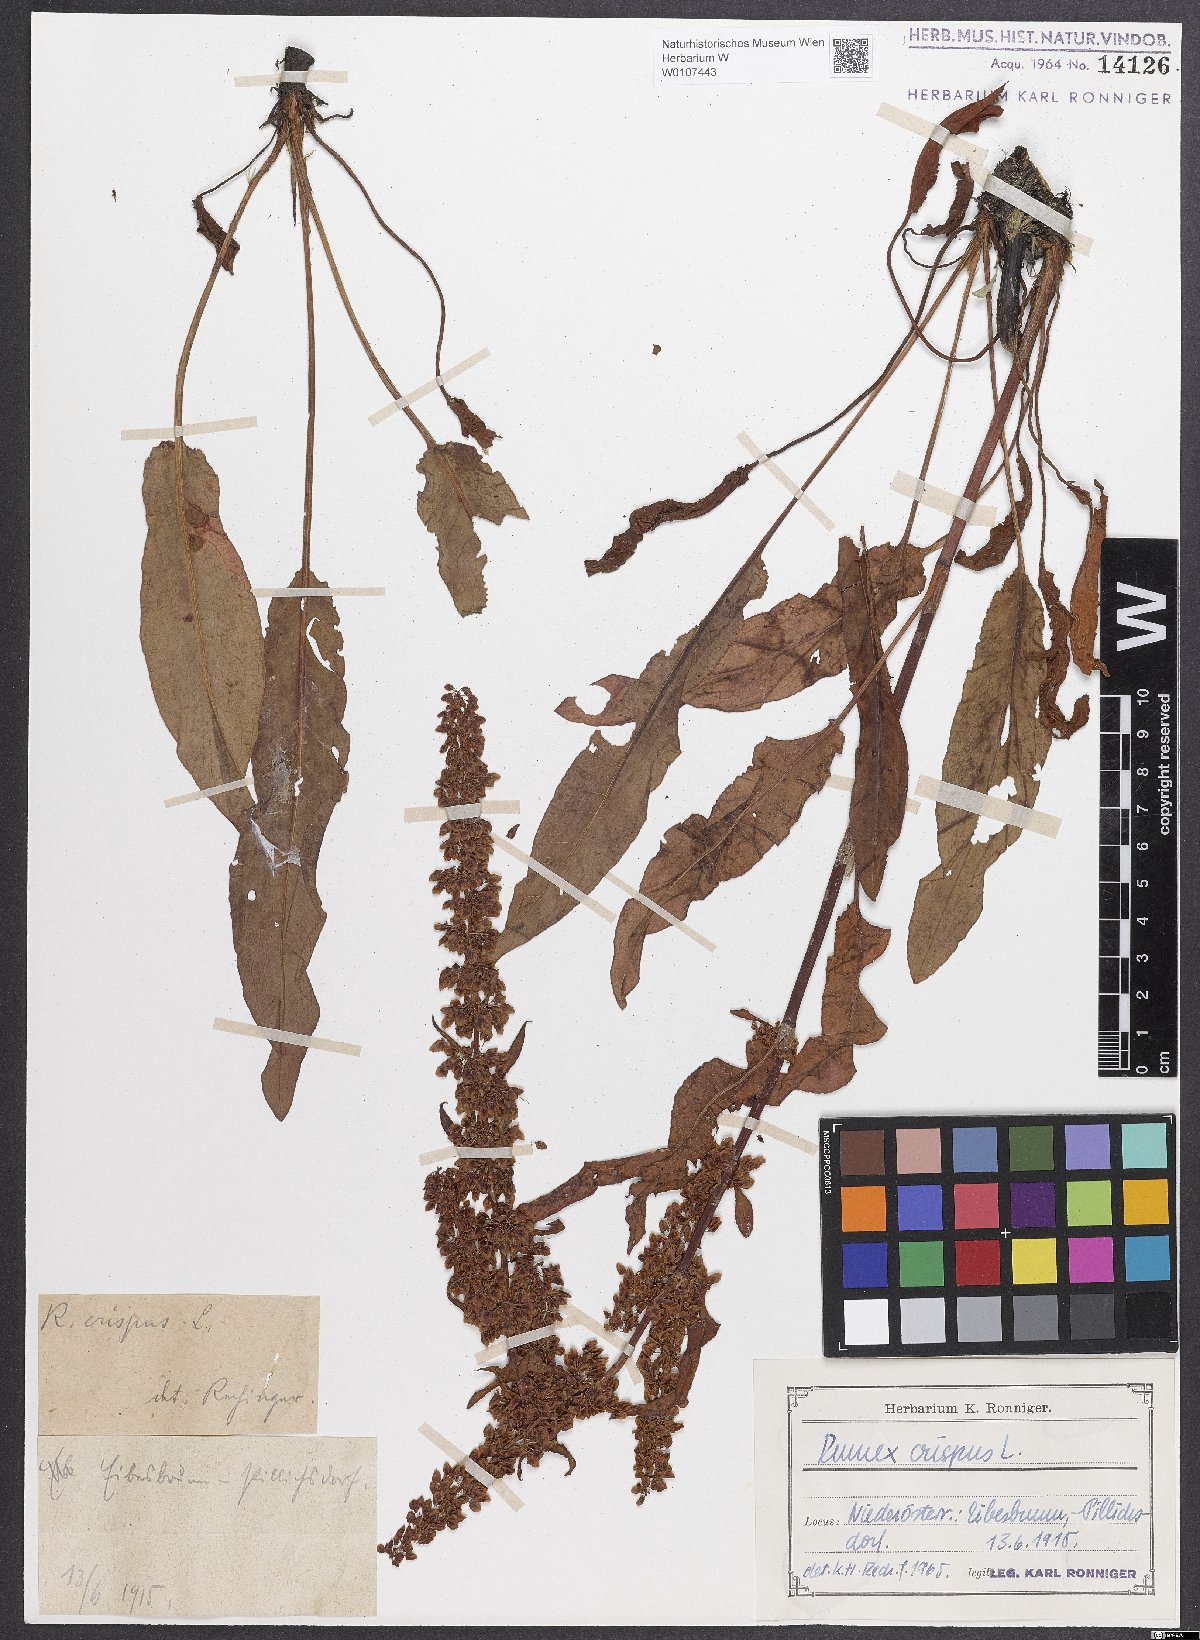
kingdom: Plantae
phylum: Tracheophyta
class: Magnoliopsida
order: Caryophyllales
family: Polygonaceae
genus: Rumex
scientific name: Rumex crispus
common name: Curled dock
